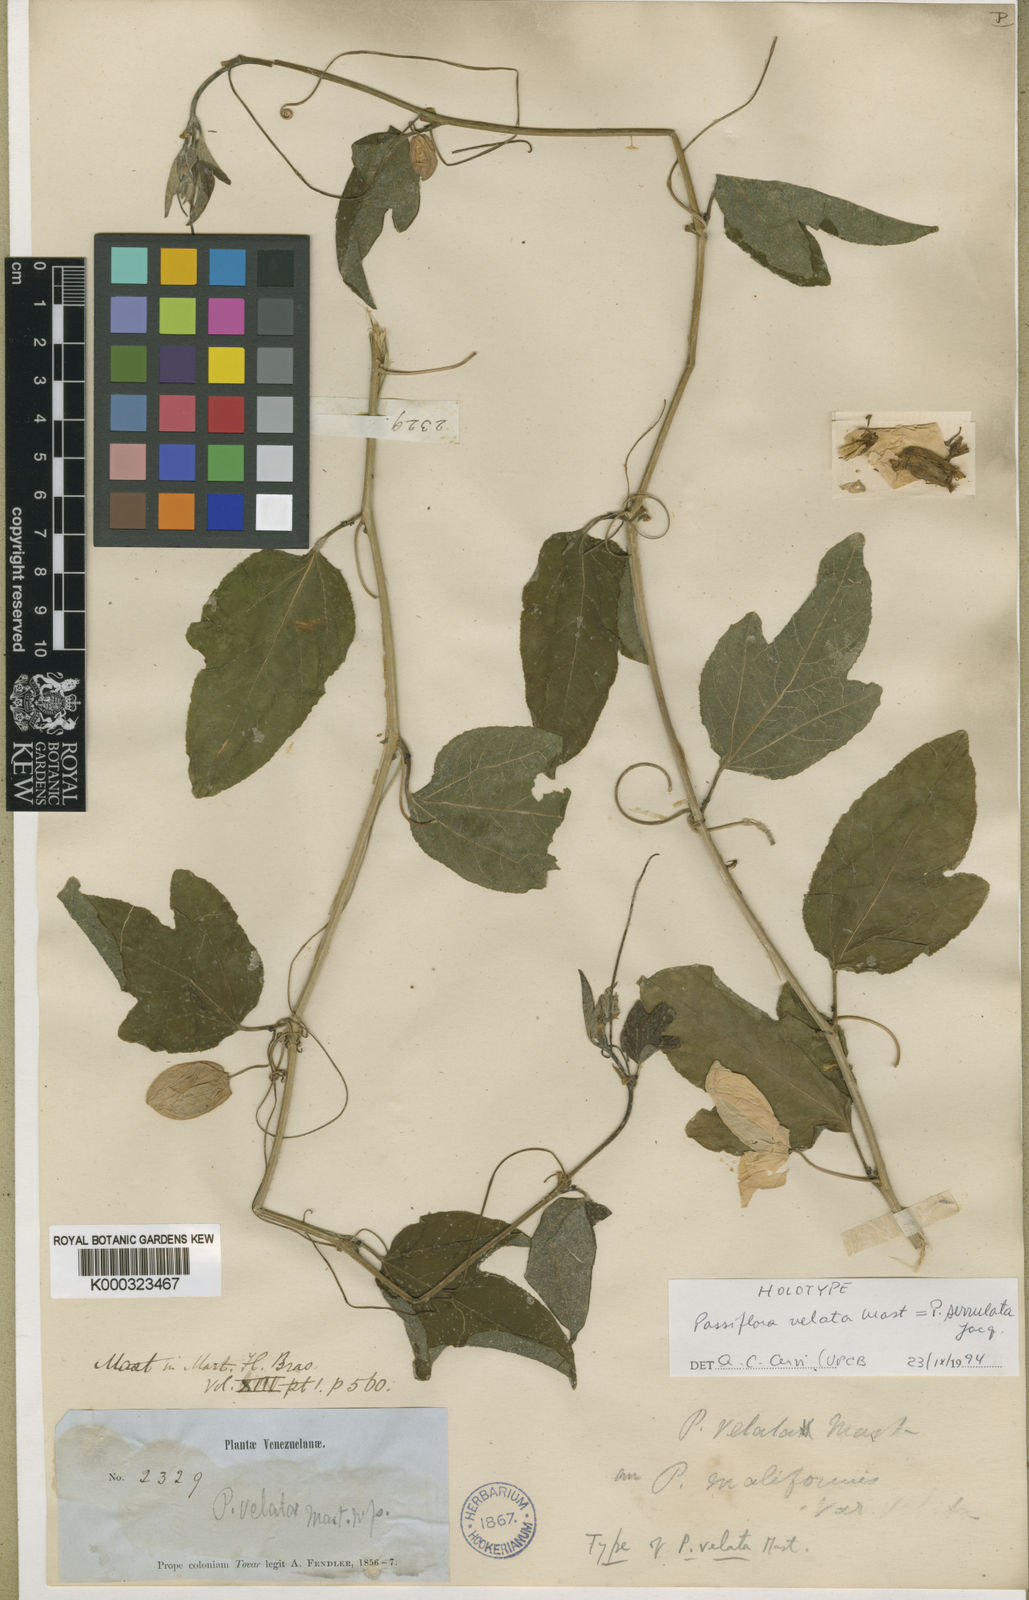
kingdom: Plantae
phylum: Tracheophyta
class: Magnoliopsida
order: Malpighiales
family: Passifloraceae
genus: Passiflora
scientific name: Passiflora serrulata
